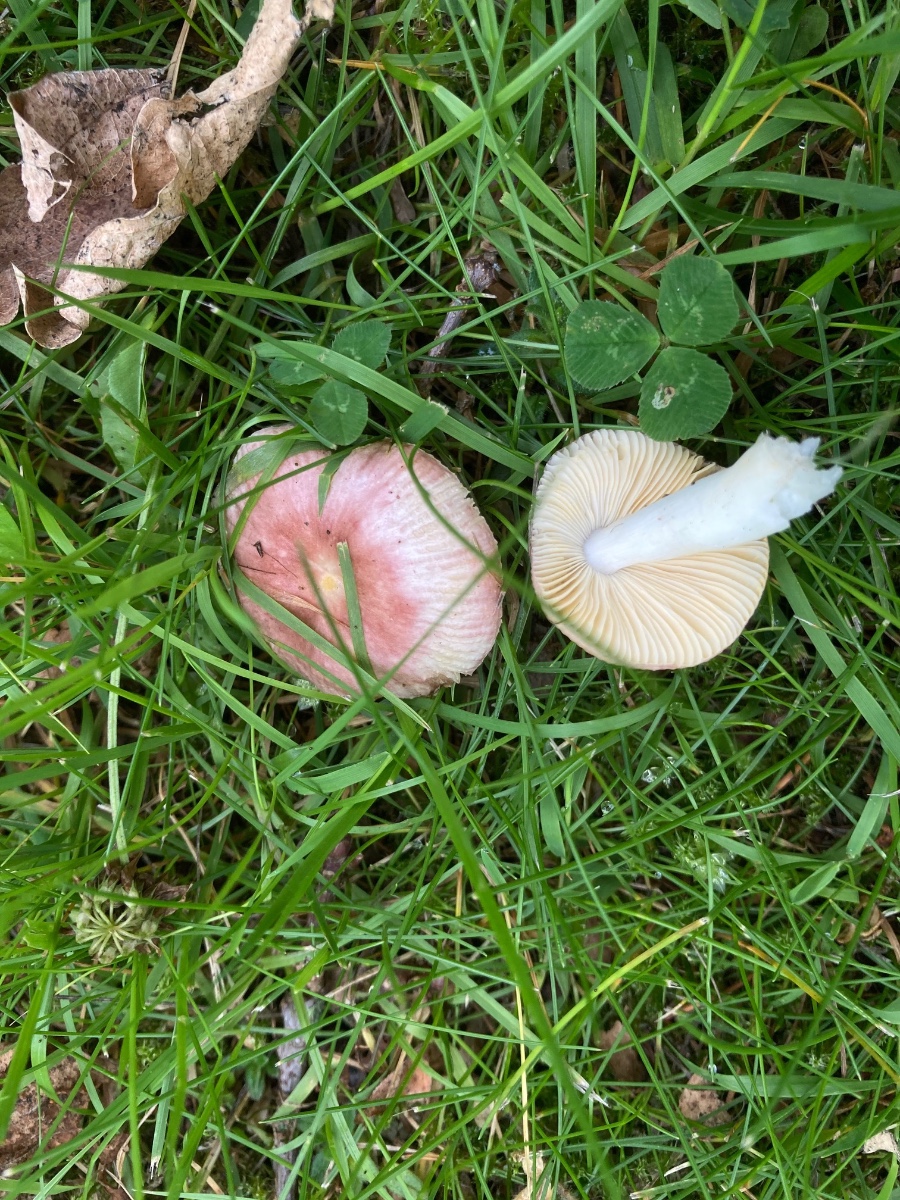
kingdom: Fungi
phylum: Basidiomycota
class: Agaricomycetes
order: Russulales
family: Russulaceae
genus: Russula
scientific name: Russula odorata
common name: duft-skørhat
